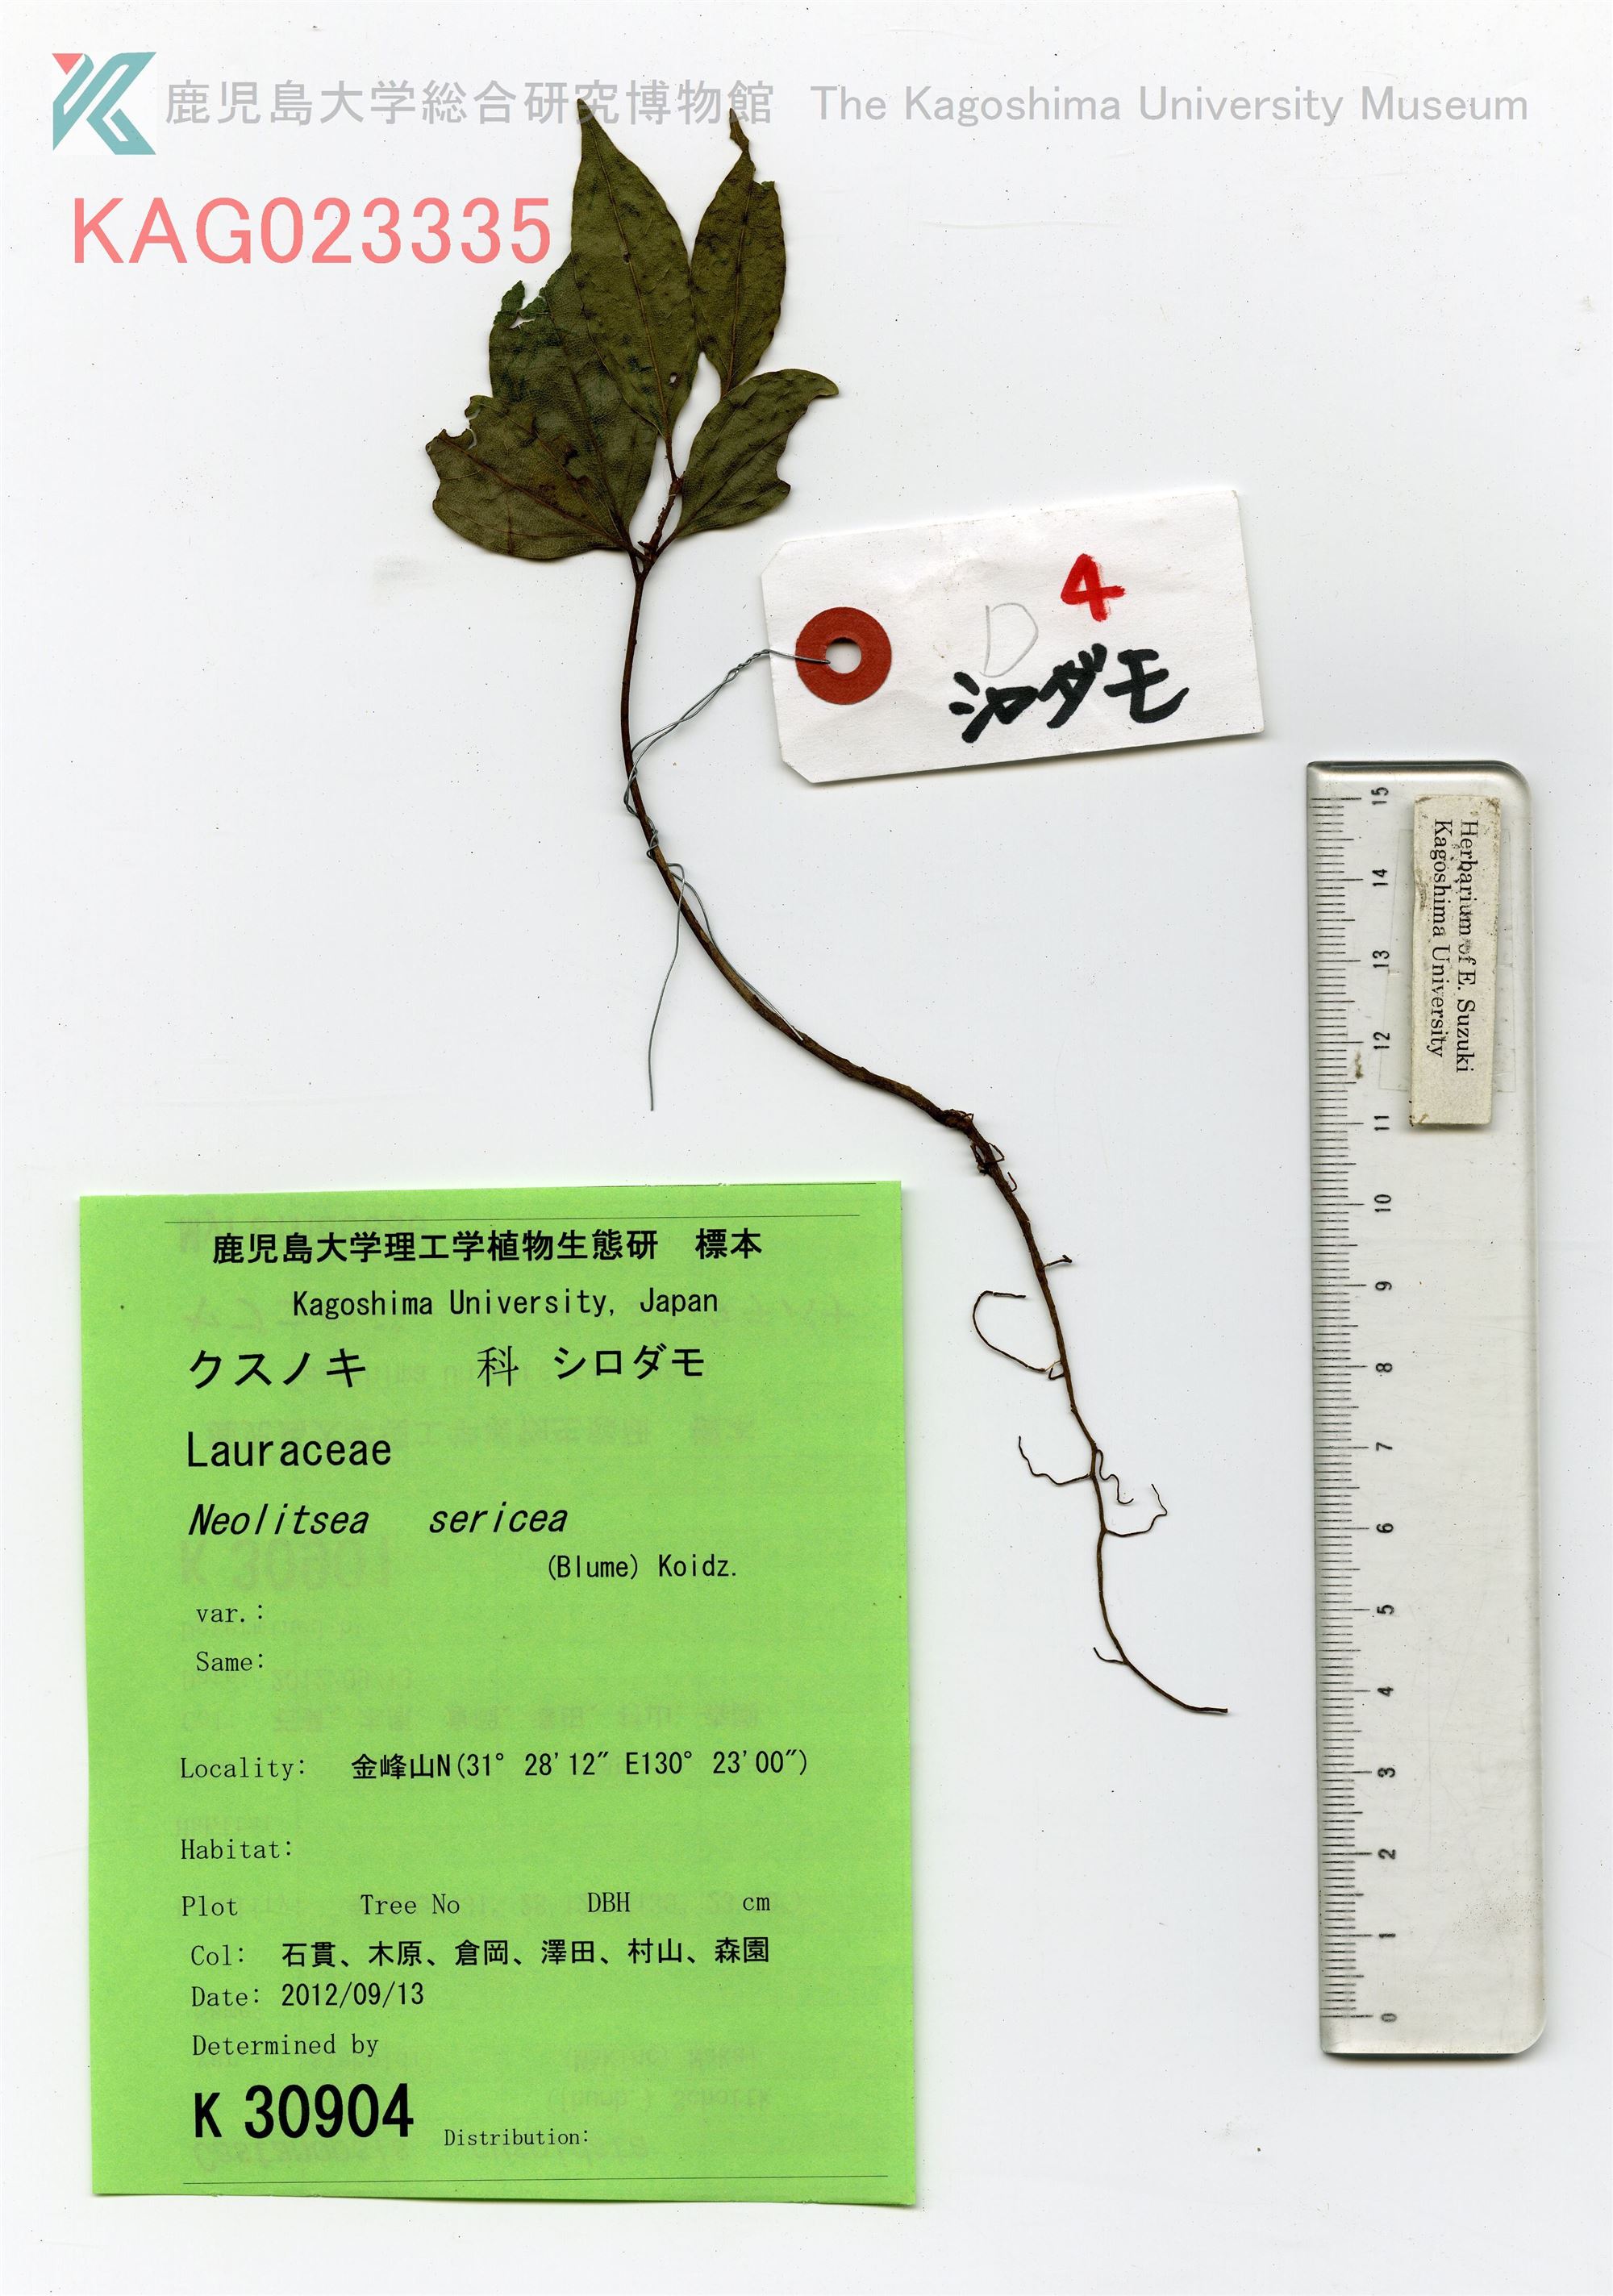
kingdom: Plantae
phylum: Tracheophyta
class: Magnoliopsida
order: Laurales
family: Lauraceae
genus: Neolitsea
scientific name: Neolitsea sericea
